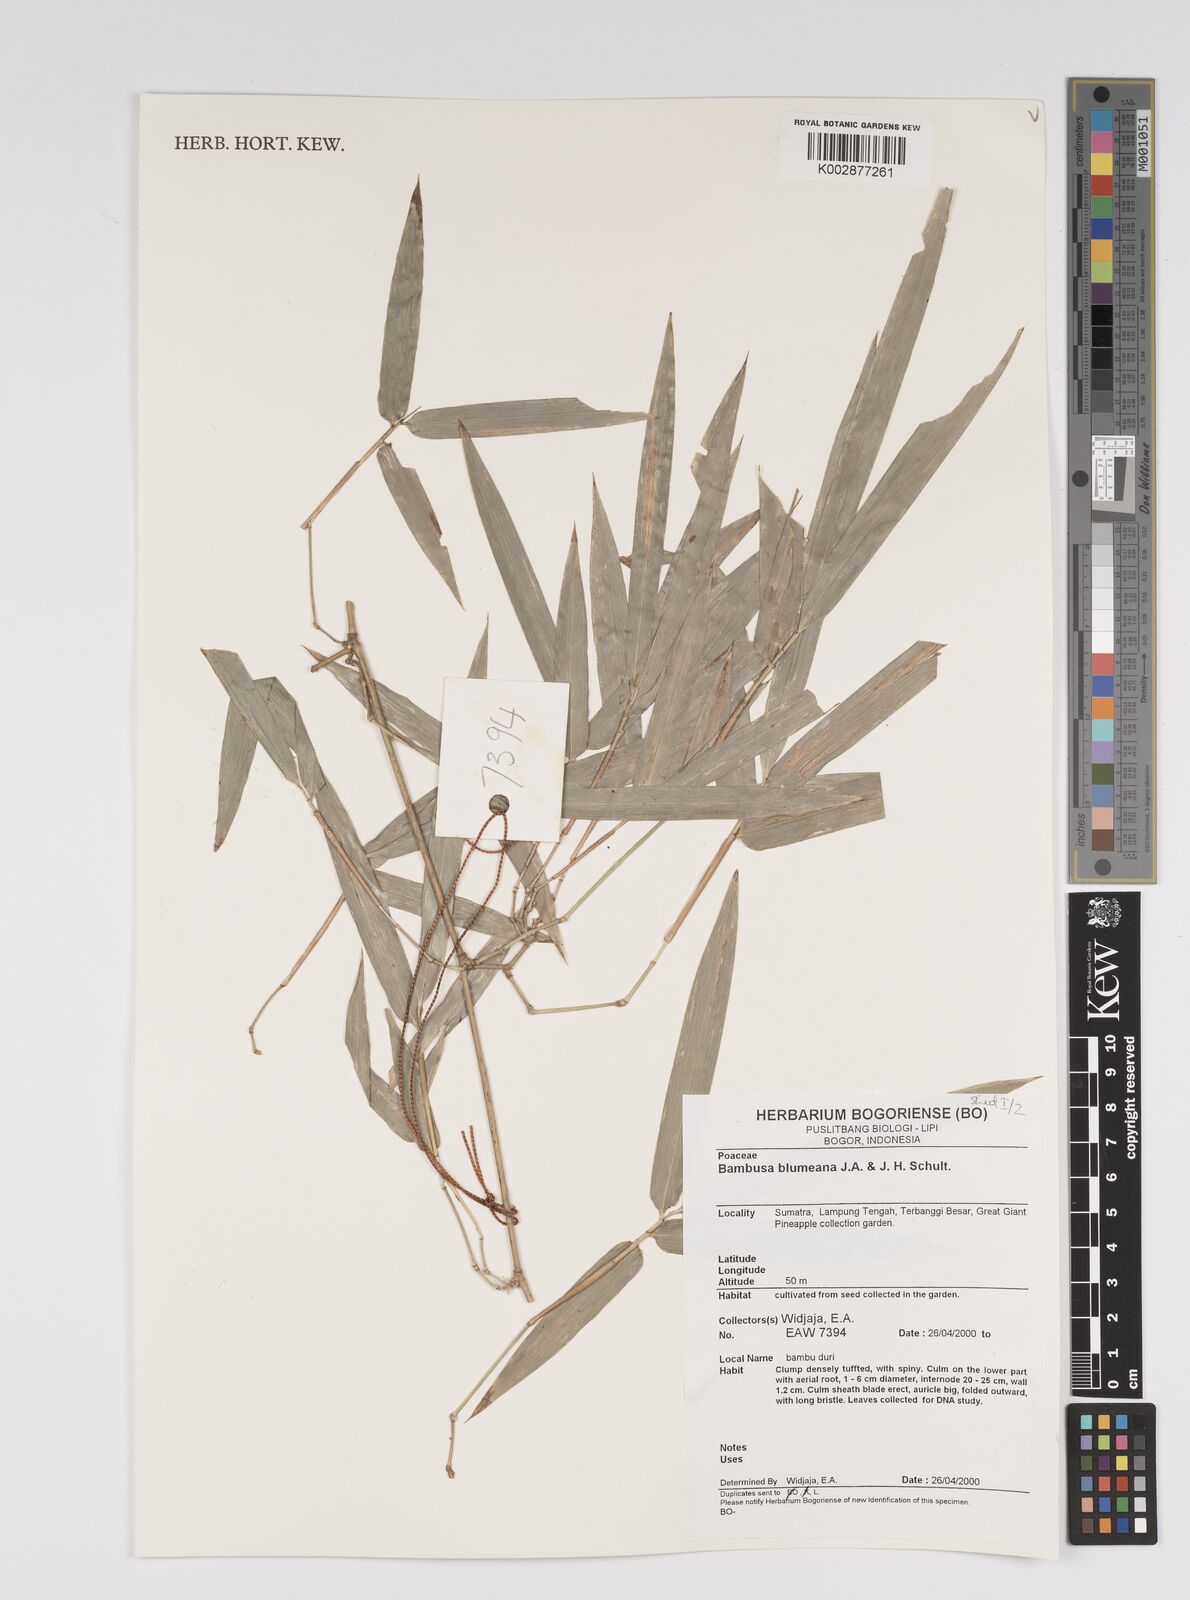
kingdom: Plantae
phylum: Tracheophyta
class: Liliopsida
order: Poales
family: Poaceae
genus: Bambusa
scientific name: Bambusa spinosa
